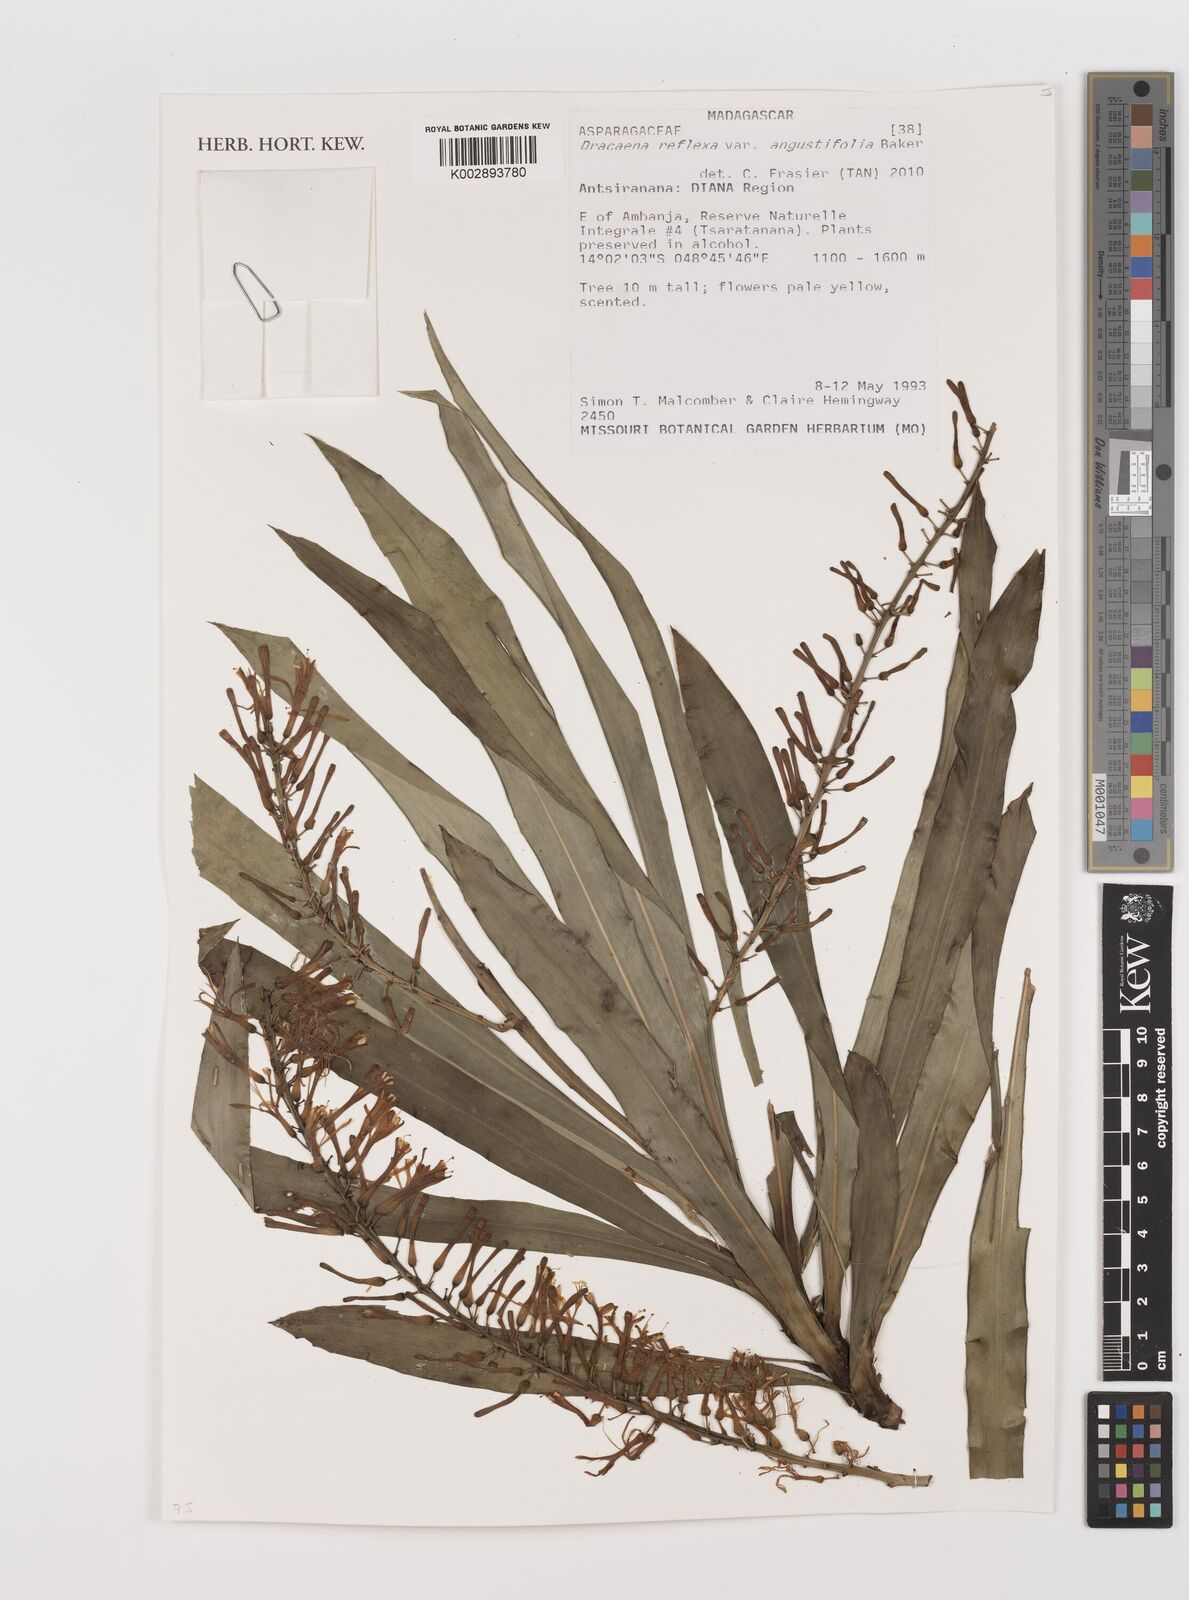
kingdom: Plantae
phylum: Tracheophyta
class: Liliopsida
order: Asparagales
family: Asparagaceae
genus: Dracaena
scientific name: Dracaena reflexa
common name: Song-of-india
